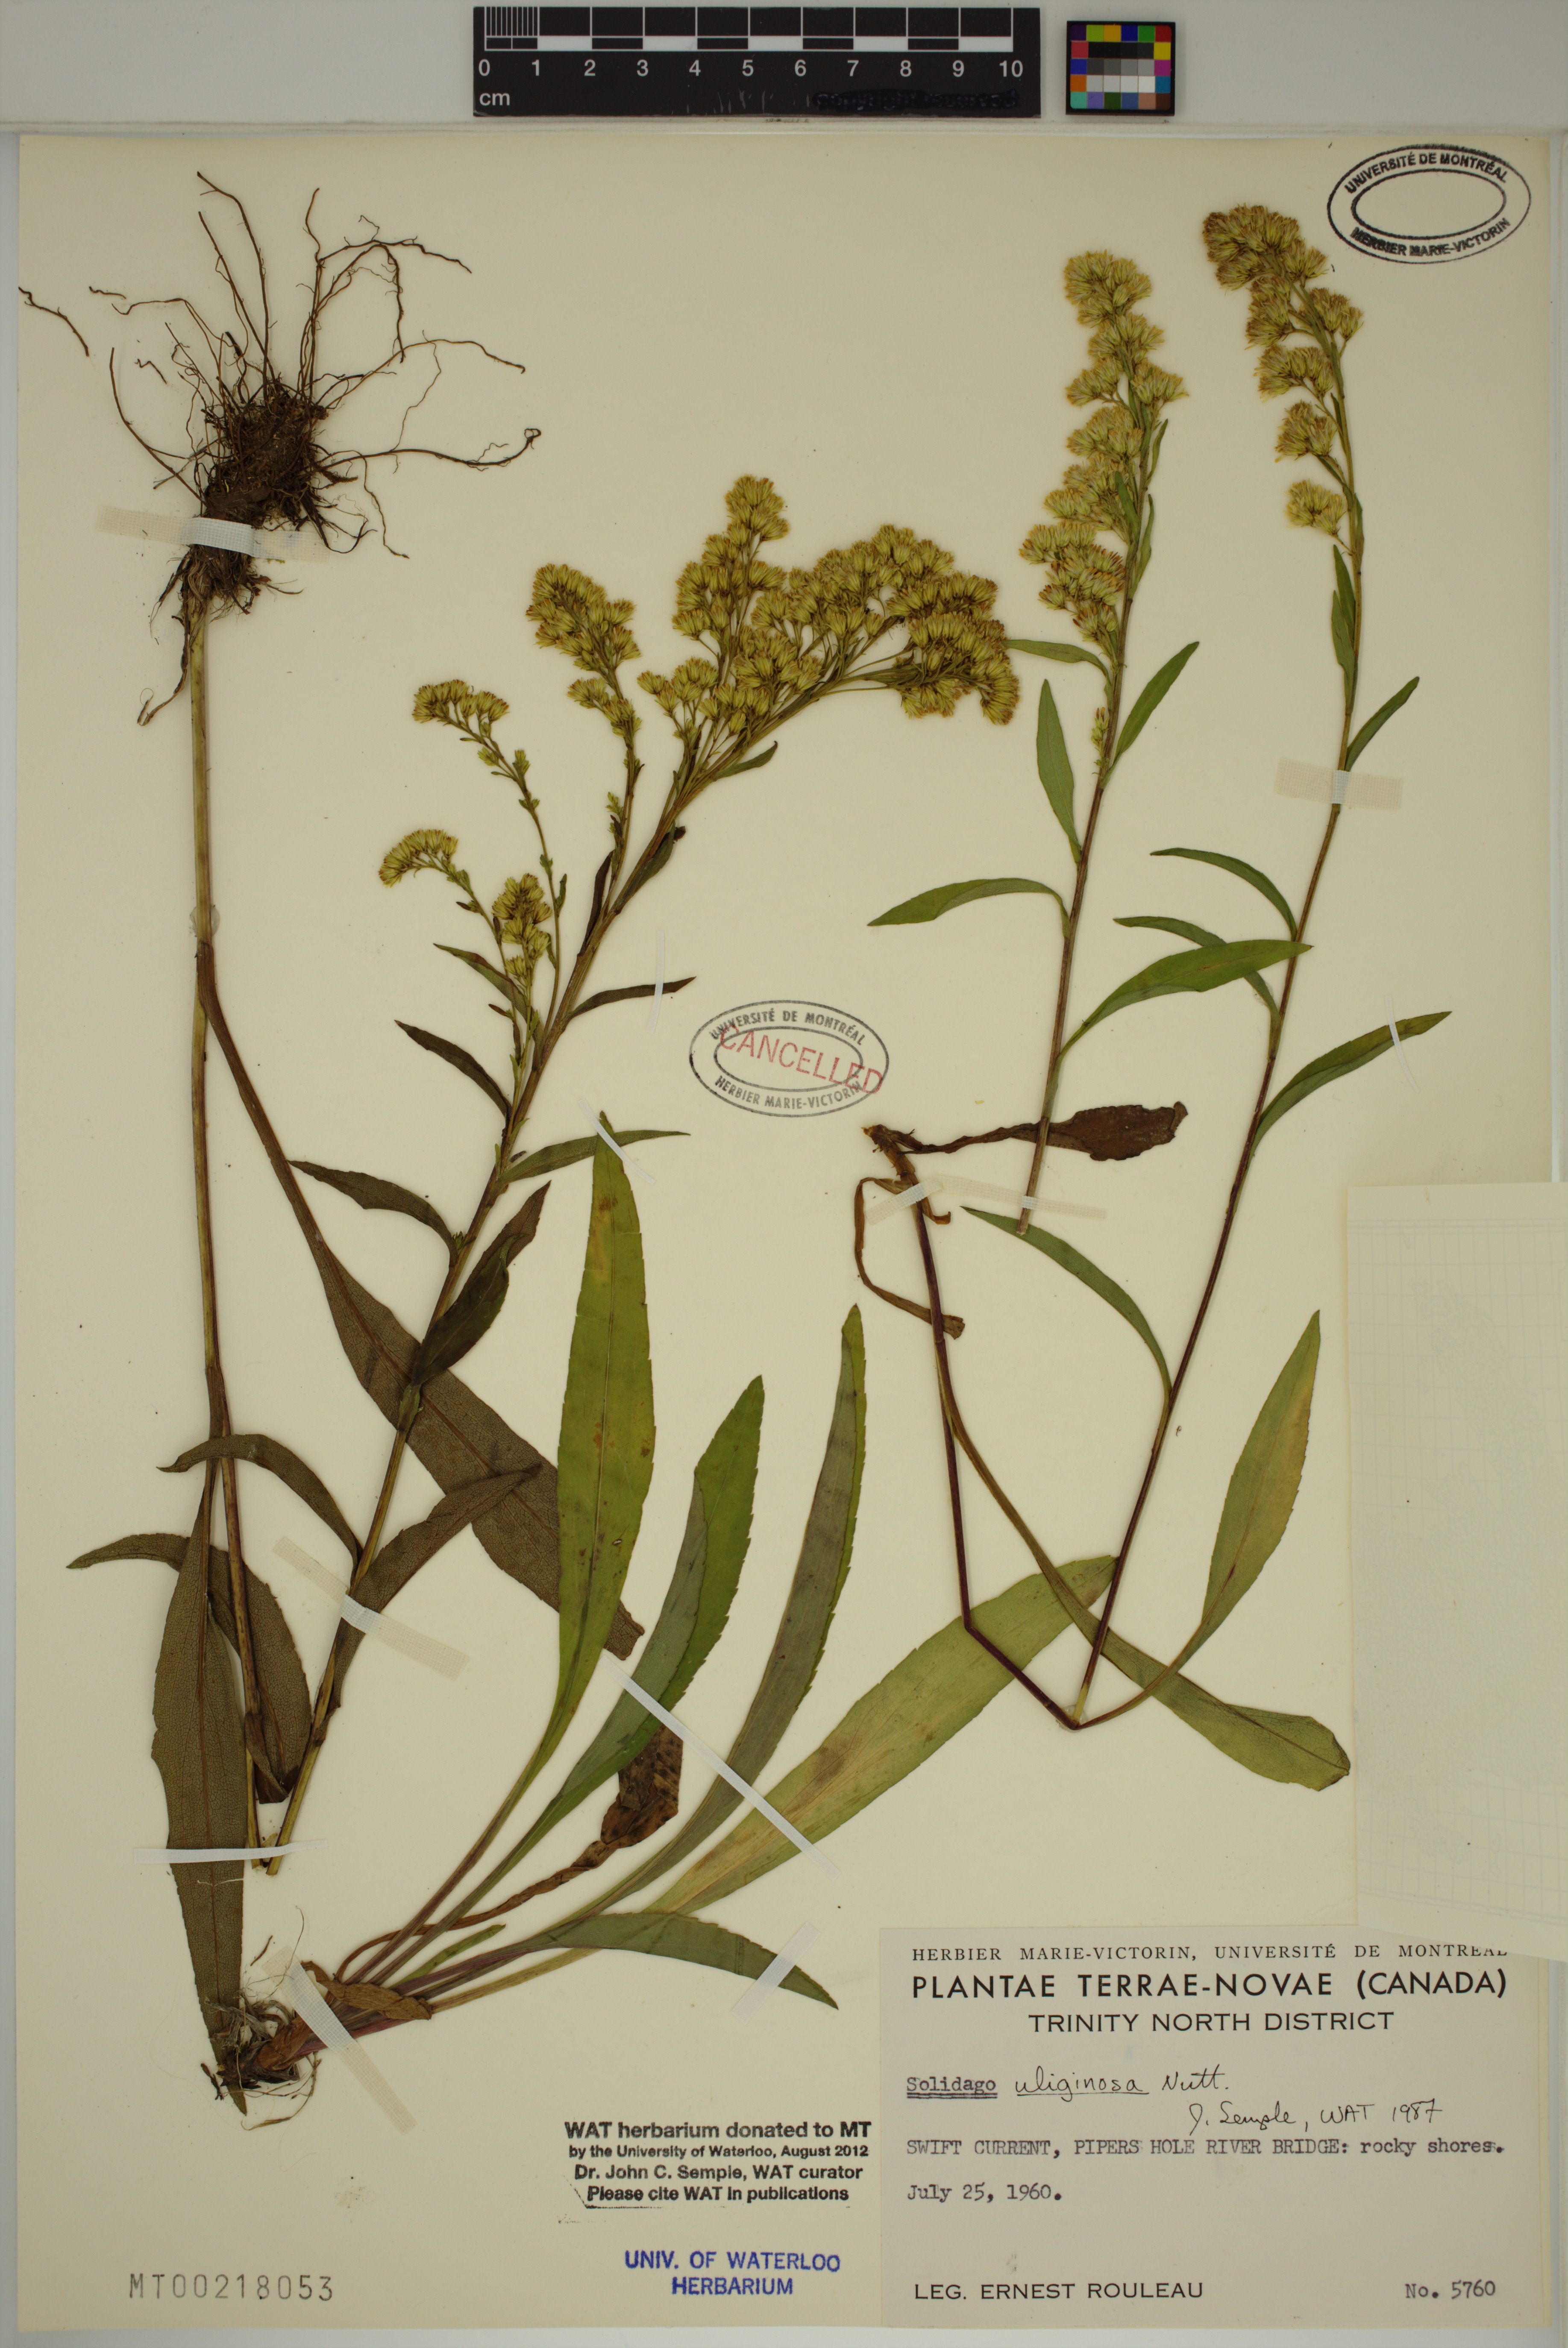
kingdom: Plantae
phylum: Tracheophyta
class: Magnoliopsida
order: Asterales
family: Asteraceae
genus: Solidago
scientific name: Solidago uliginosa
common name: Bog goldenrod
